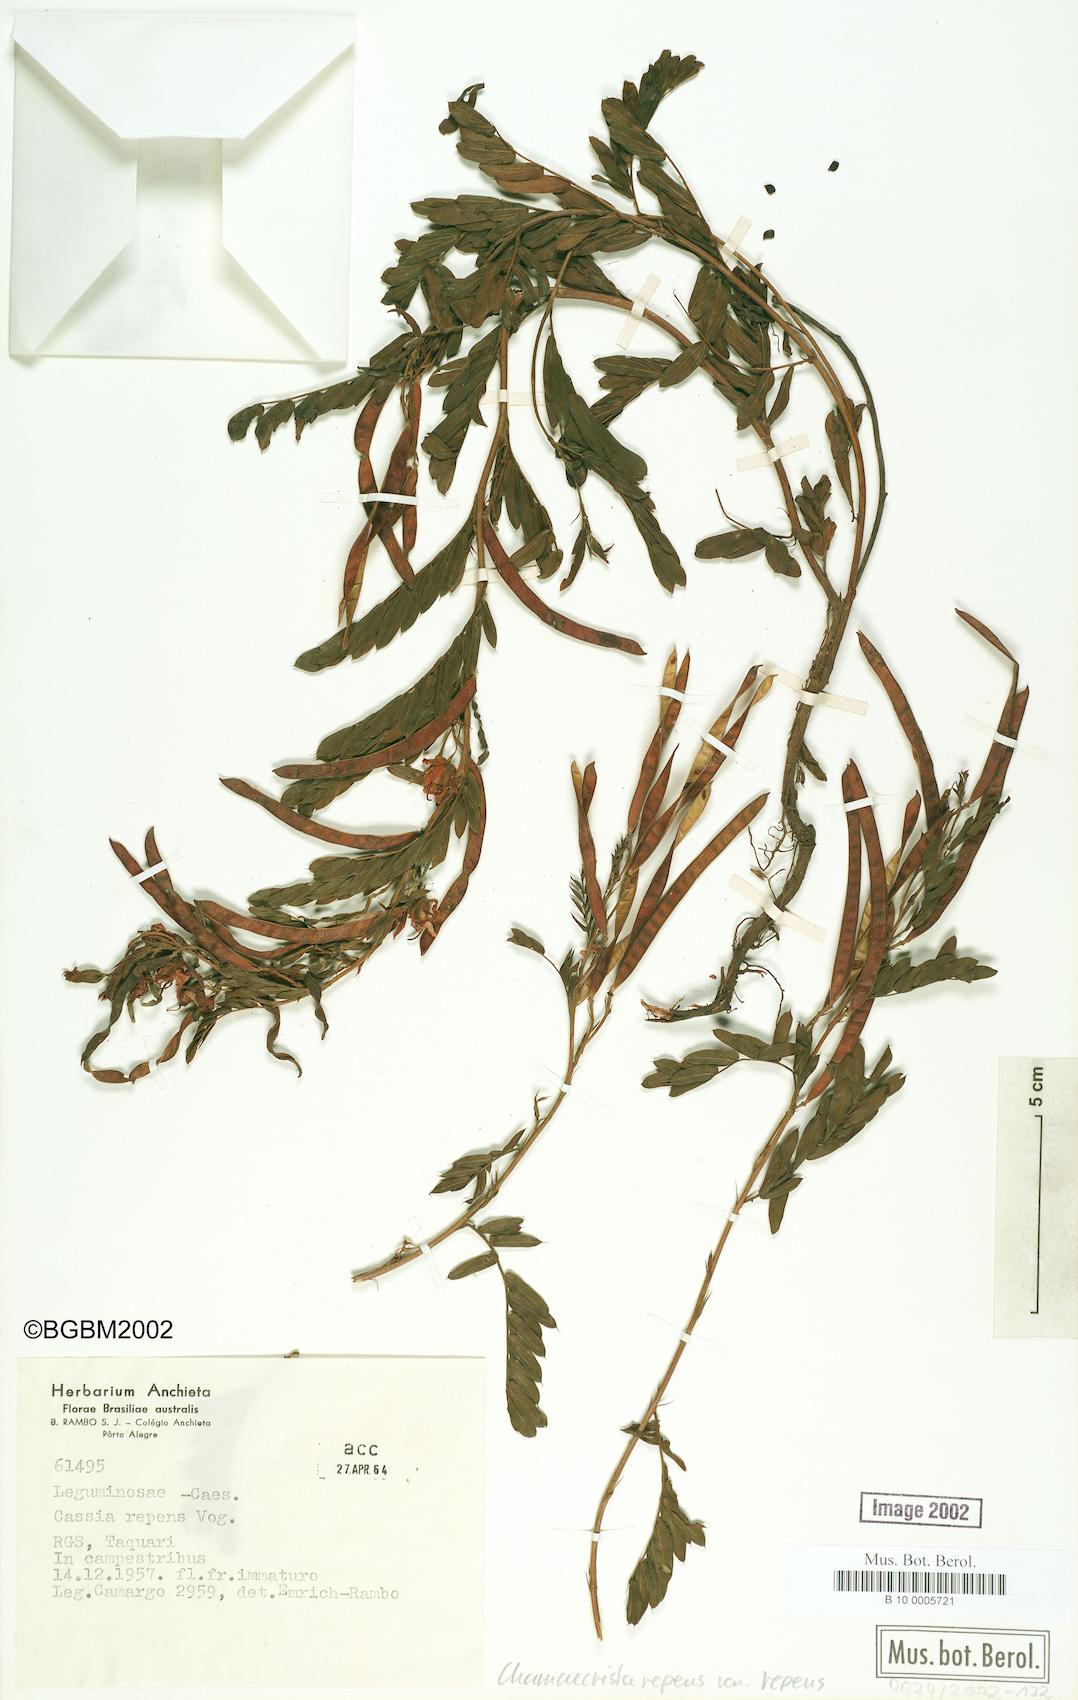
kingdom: Plantae
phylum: Tracheophyta
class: Magnoliopsida
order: Fabales
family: Fabaceae
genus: Chamaecrista
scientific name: Chamaecrista repens
